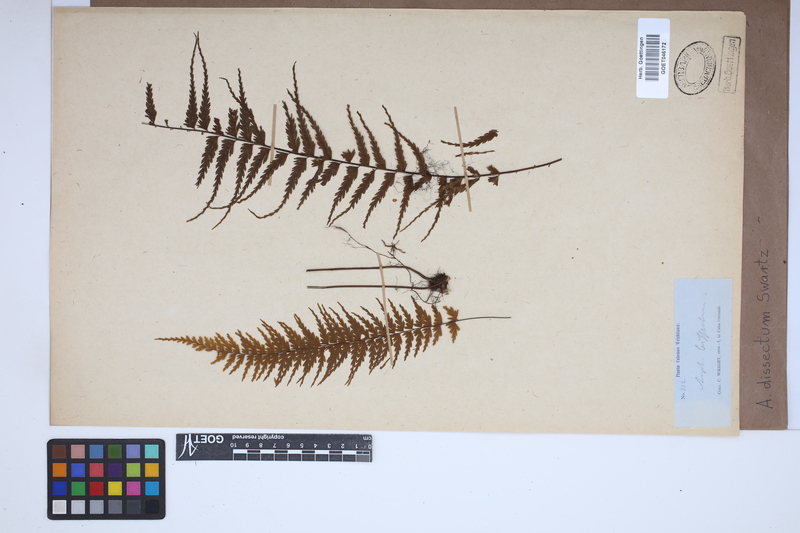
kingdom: Plantae
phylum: Tracheophyta
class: Polypodiopsida
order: Polypodiales
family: Aspleniaceae
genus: Asplenium
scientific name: Asplenium dissectum
